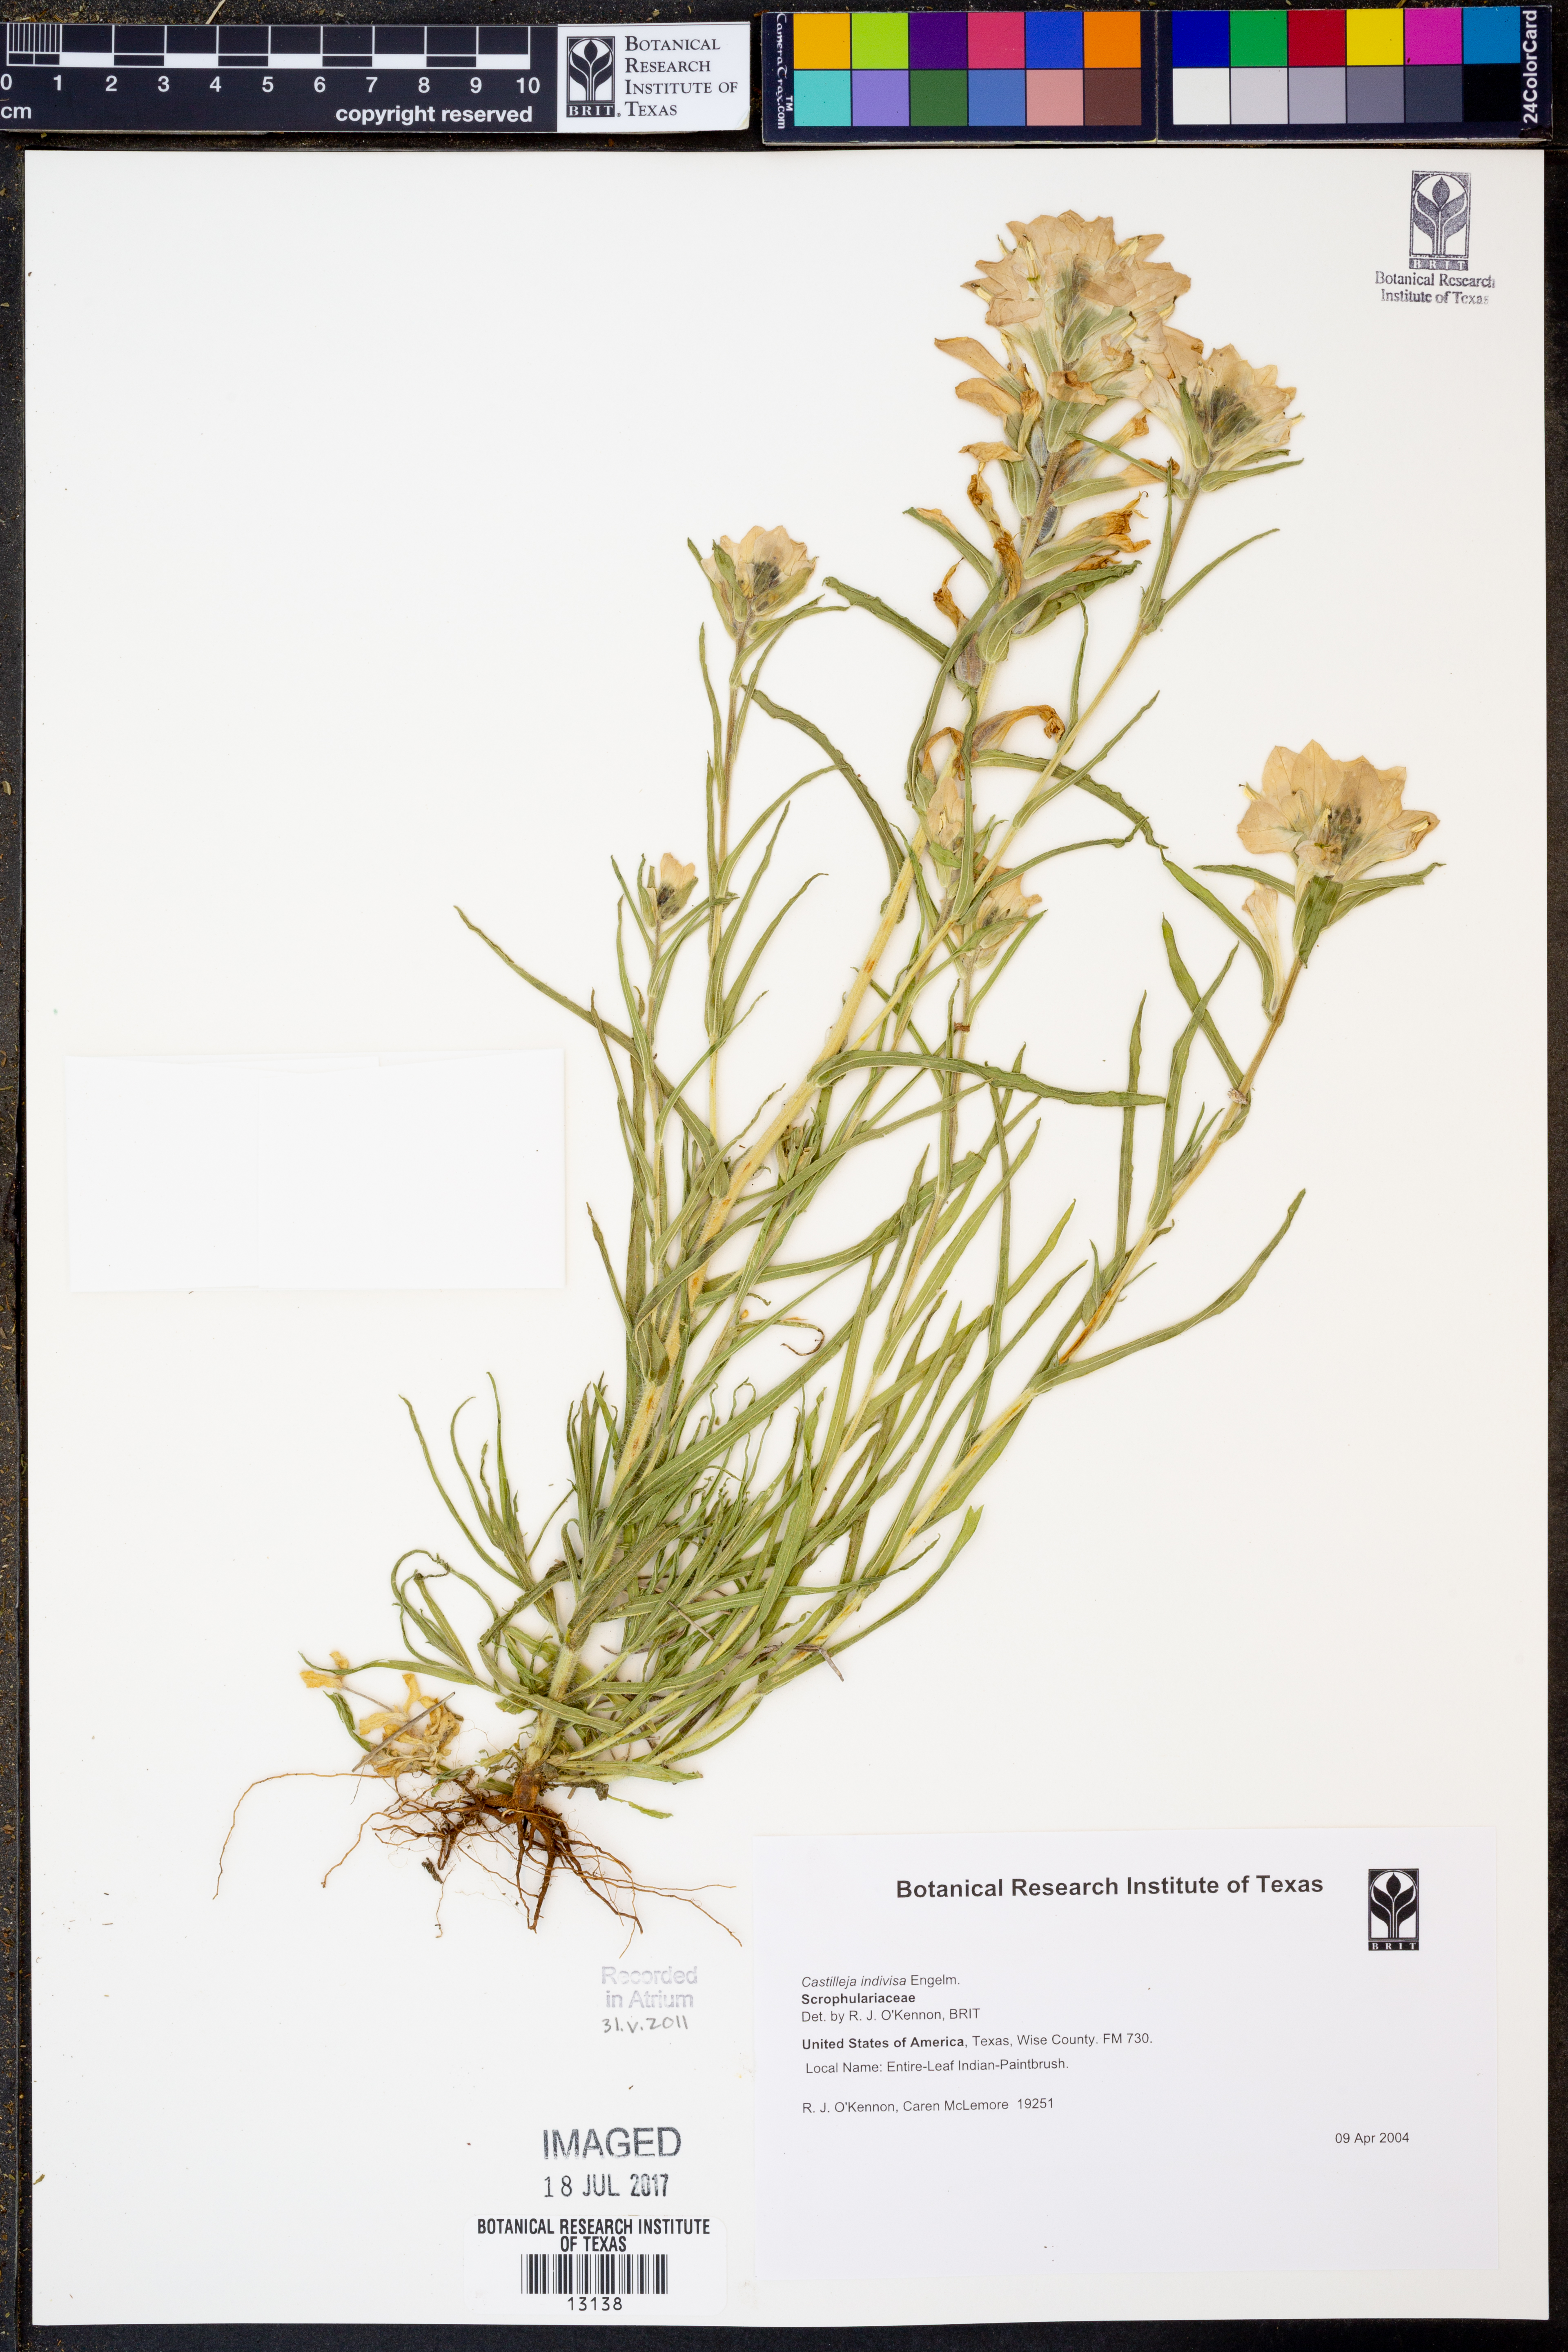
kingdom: Plantae
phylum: Tracheophyta
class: Magnoliopsida
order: Lamiales
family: Orobanchaceae
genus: Castilleja
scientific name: Castilleja indivisa
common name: Texas paintbrush
